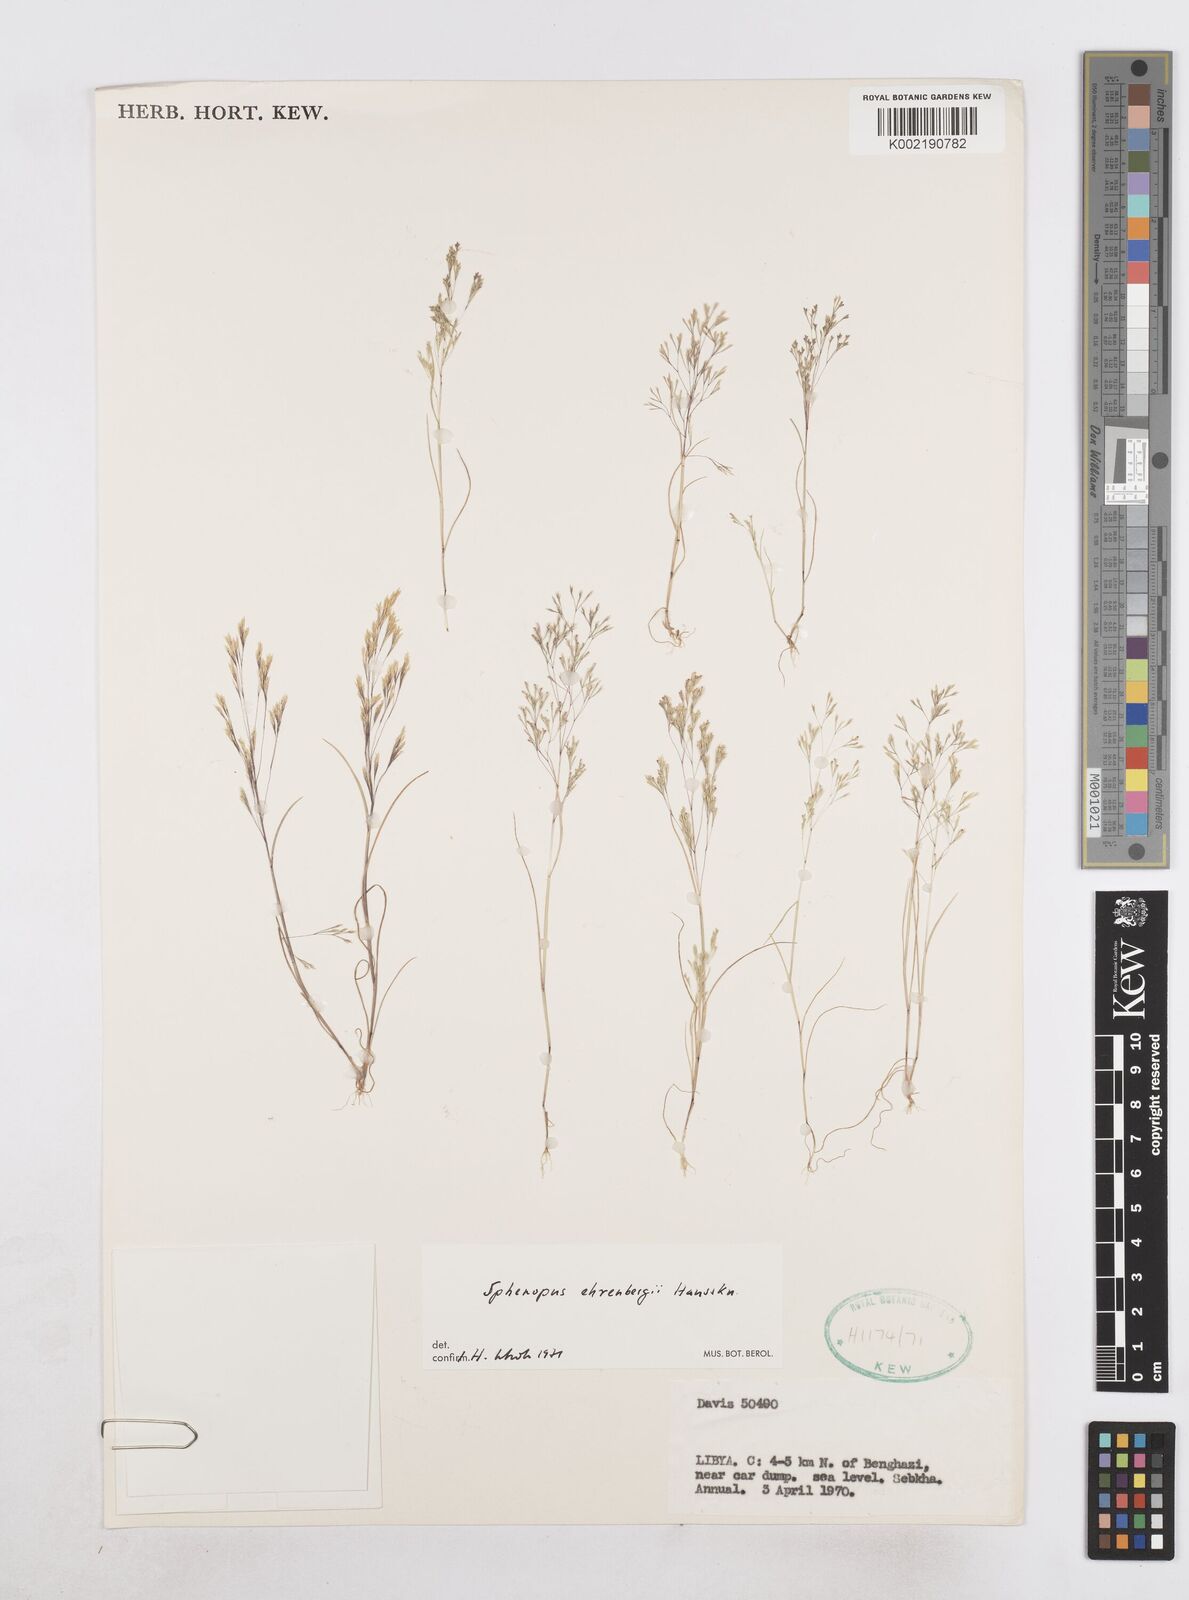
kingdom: Plantae
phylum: Tracheophyta
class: Liliopsida
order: Poales
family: Poaceae
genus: Sphenopus
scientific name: Sphenopus ehrenbergii
